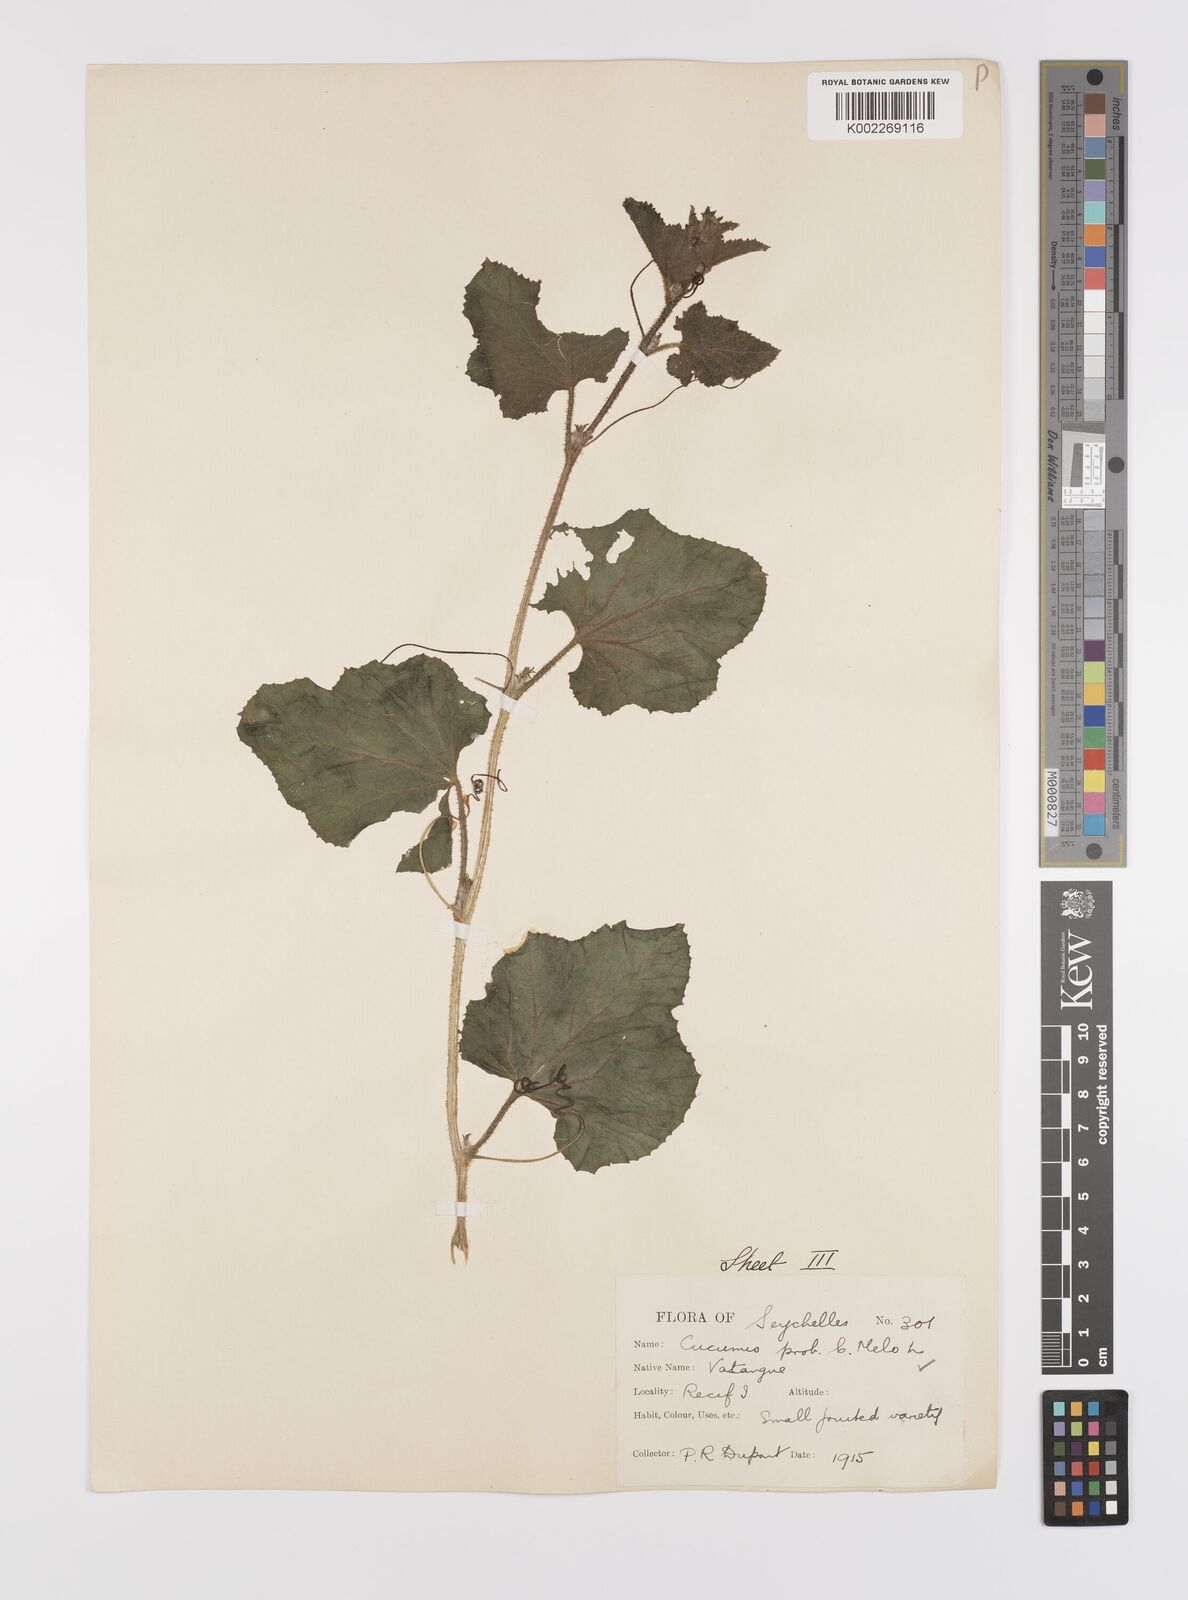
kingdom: Plantae
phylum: Tracheophyta
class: Magnoliopsida
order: Cucurbitales
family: Cucurbitaceae
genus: Cucumis
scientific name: Cucumis melo
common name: Melon
